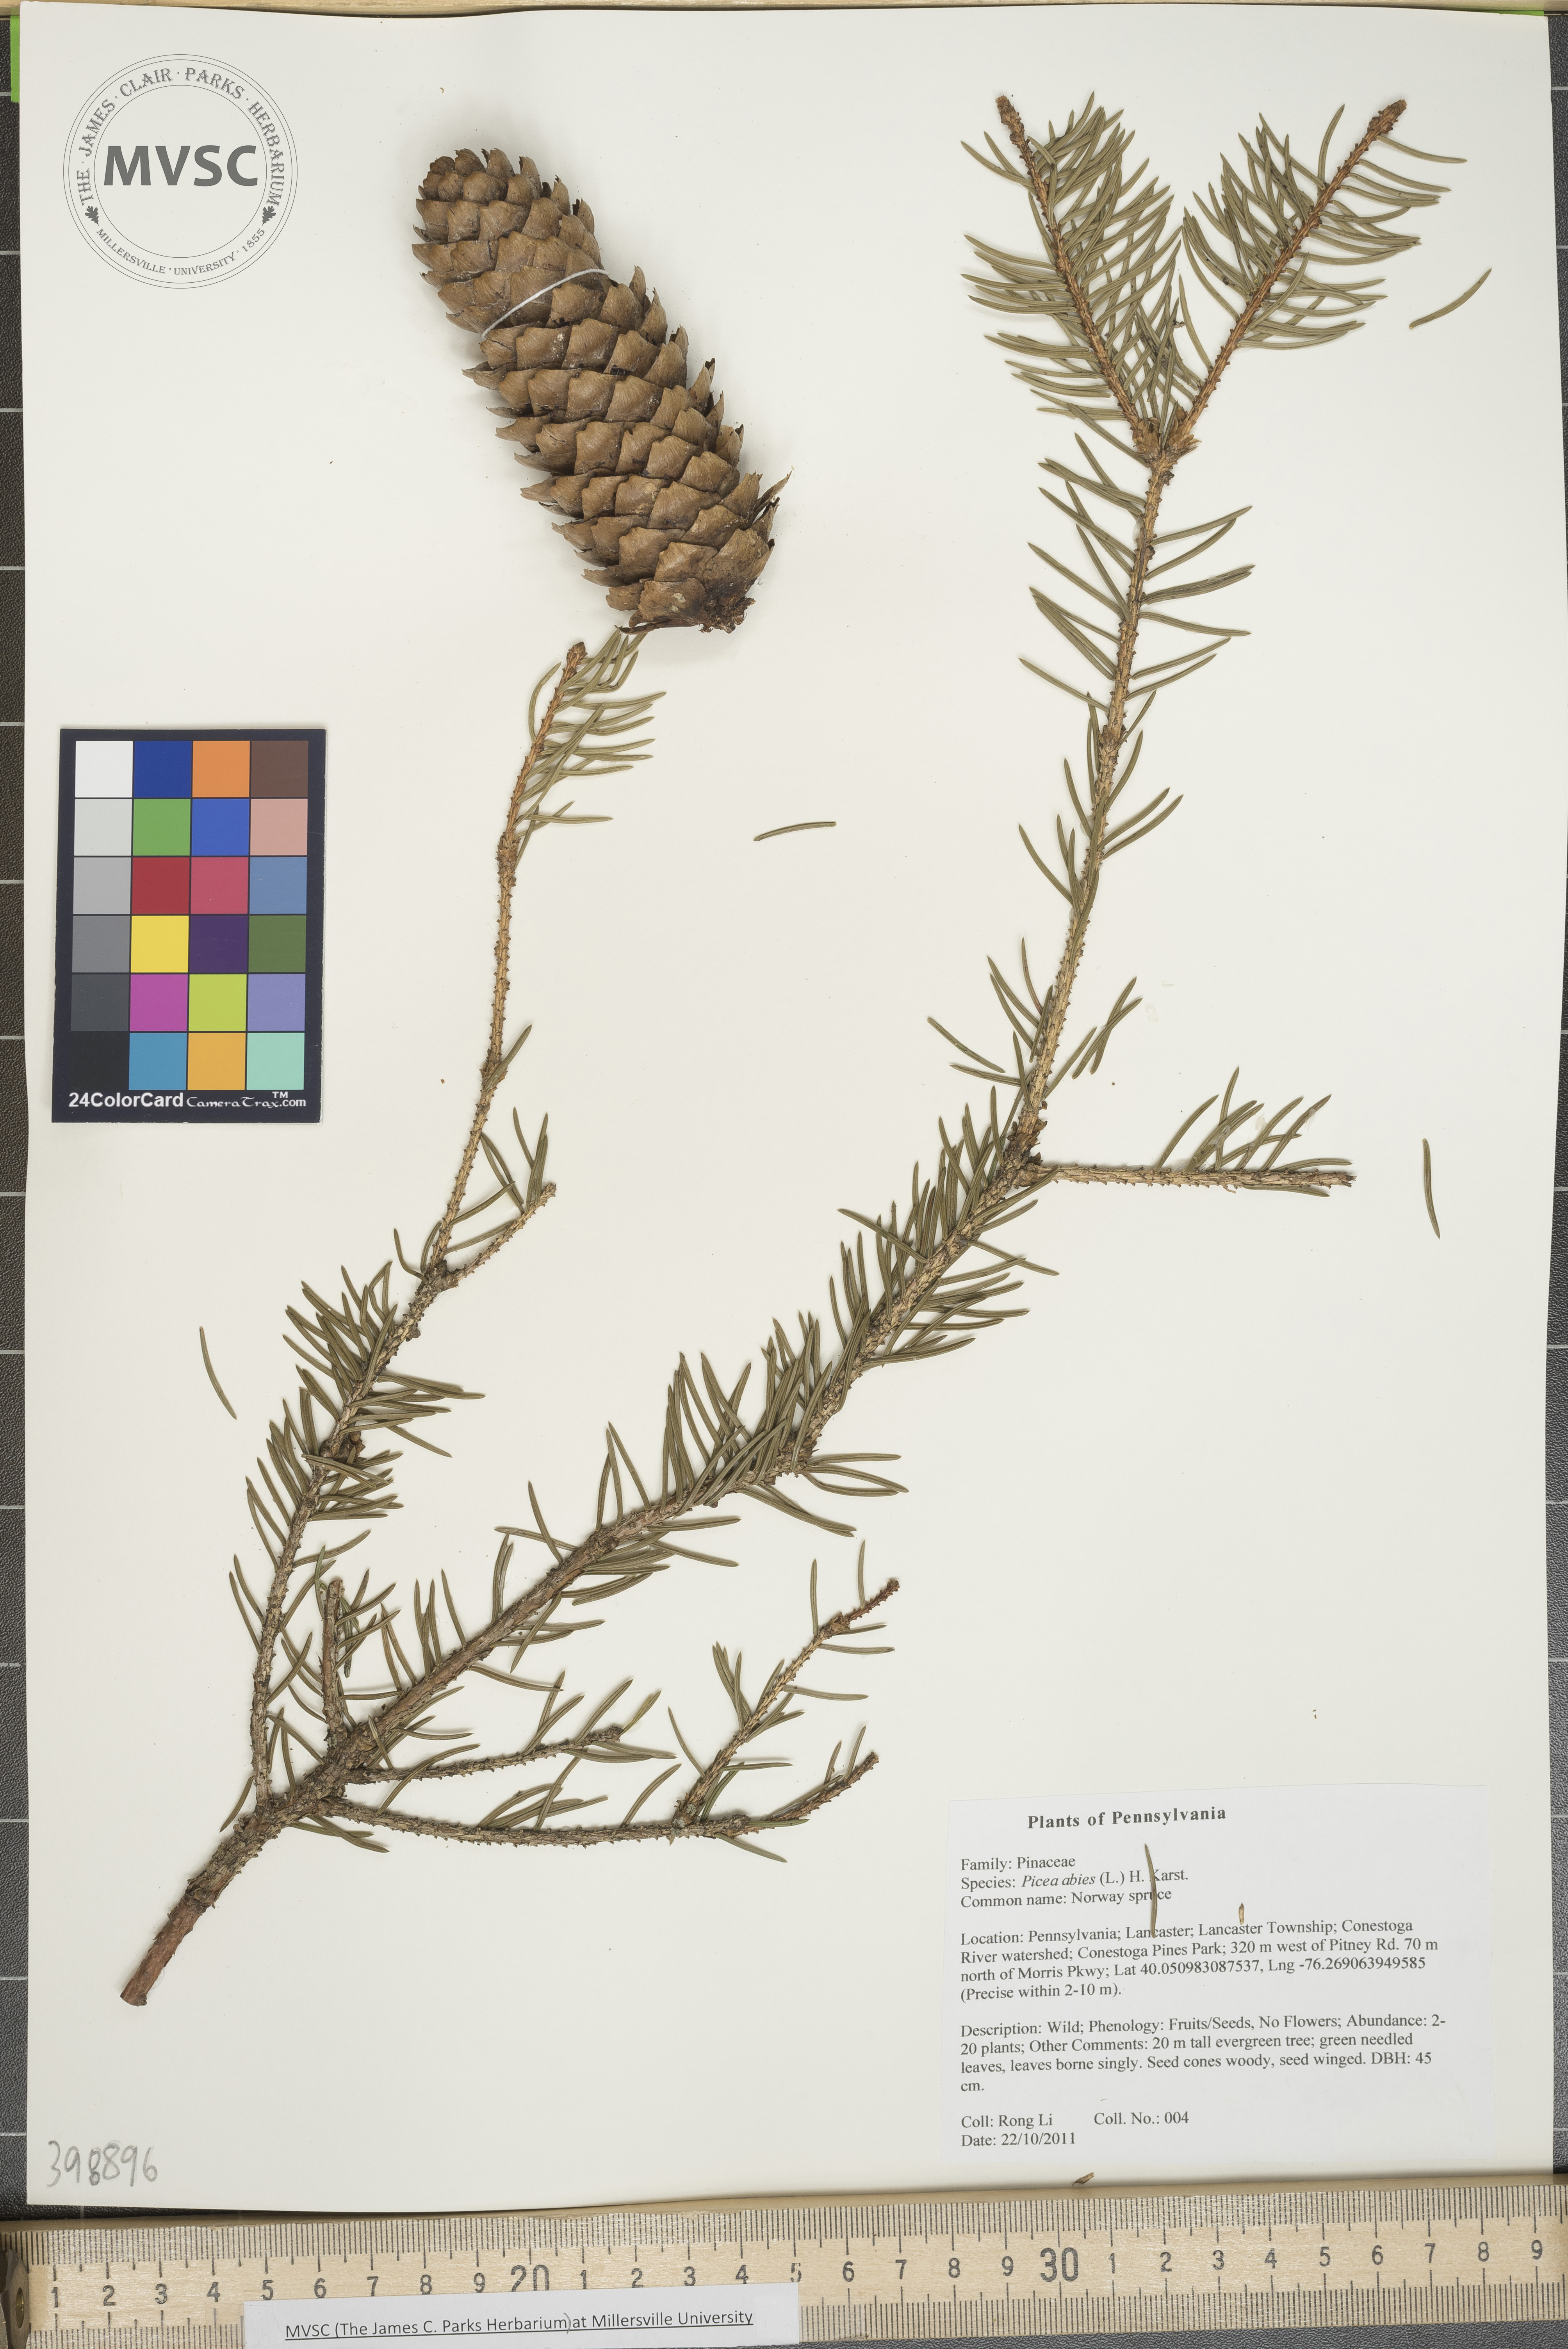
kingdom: Plantae
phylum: Tracheophyta
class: Pinopsida
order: Pinales
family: Pinaceae
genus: Picea
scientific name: Picea abies
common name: Norway spruce
